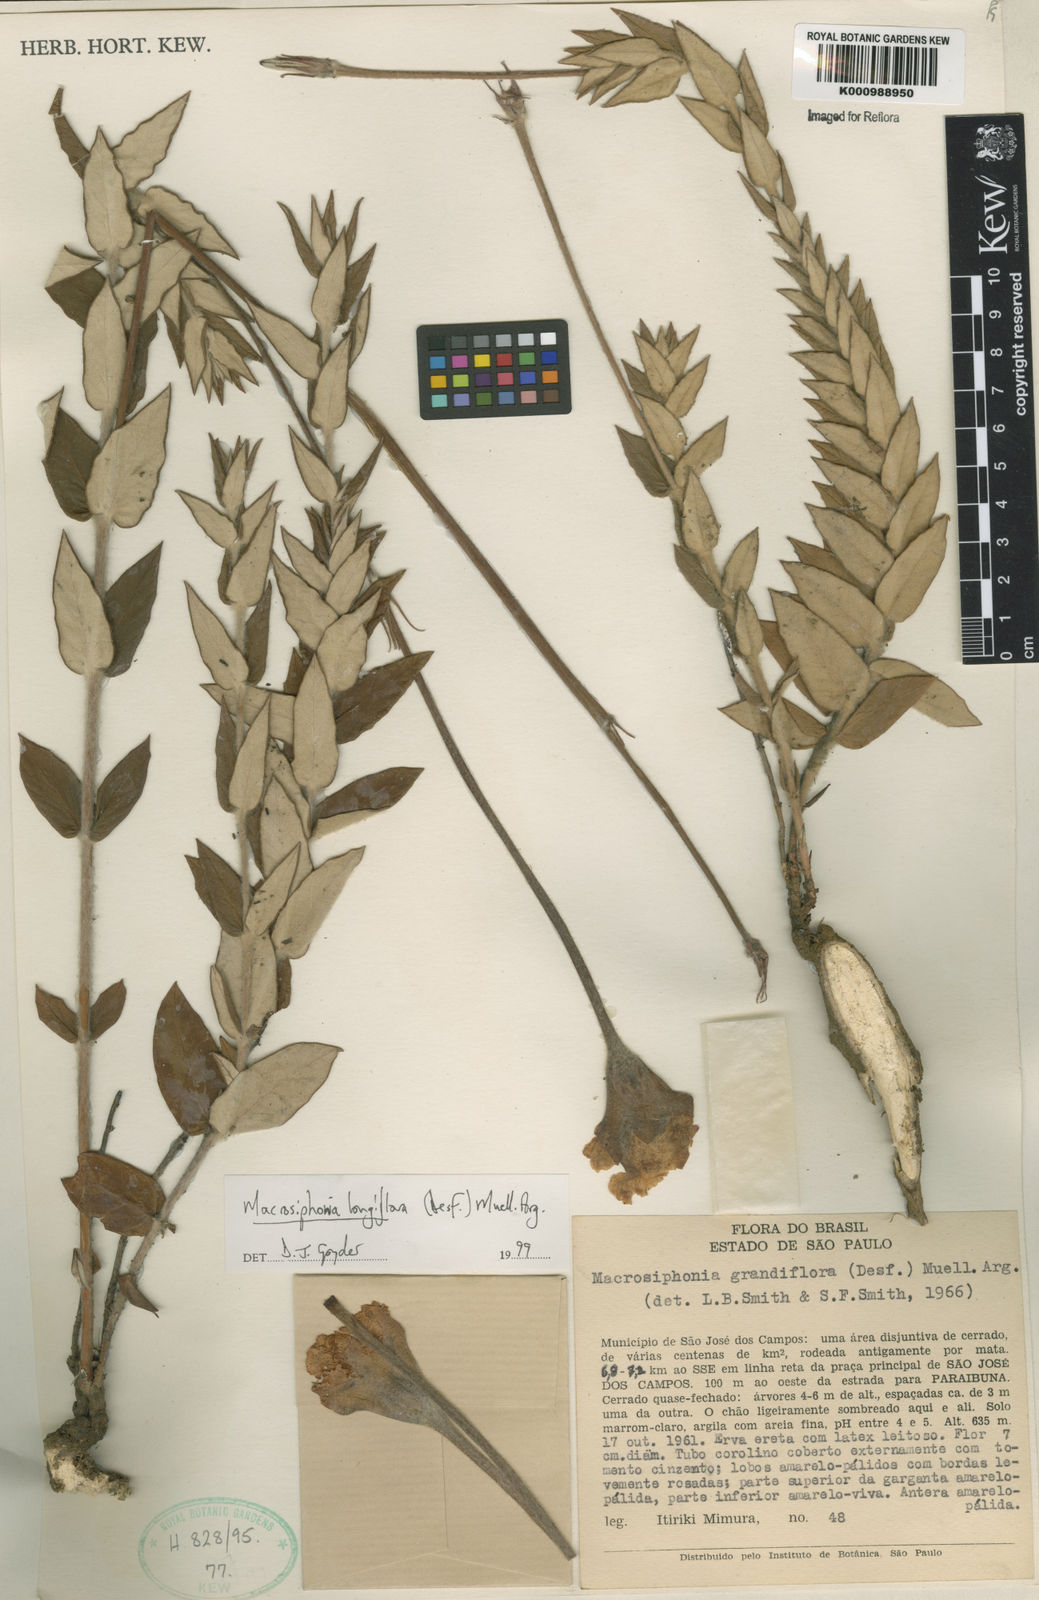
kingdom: Plantae
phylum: Tracheophyta
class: Magnoliopsida
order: Gentianales
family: Apocynaceae
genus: Mandevilla
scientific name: Mandevilla longiflora
